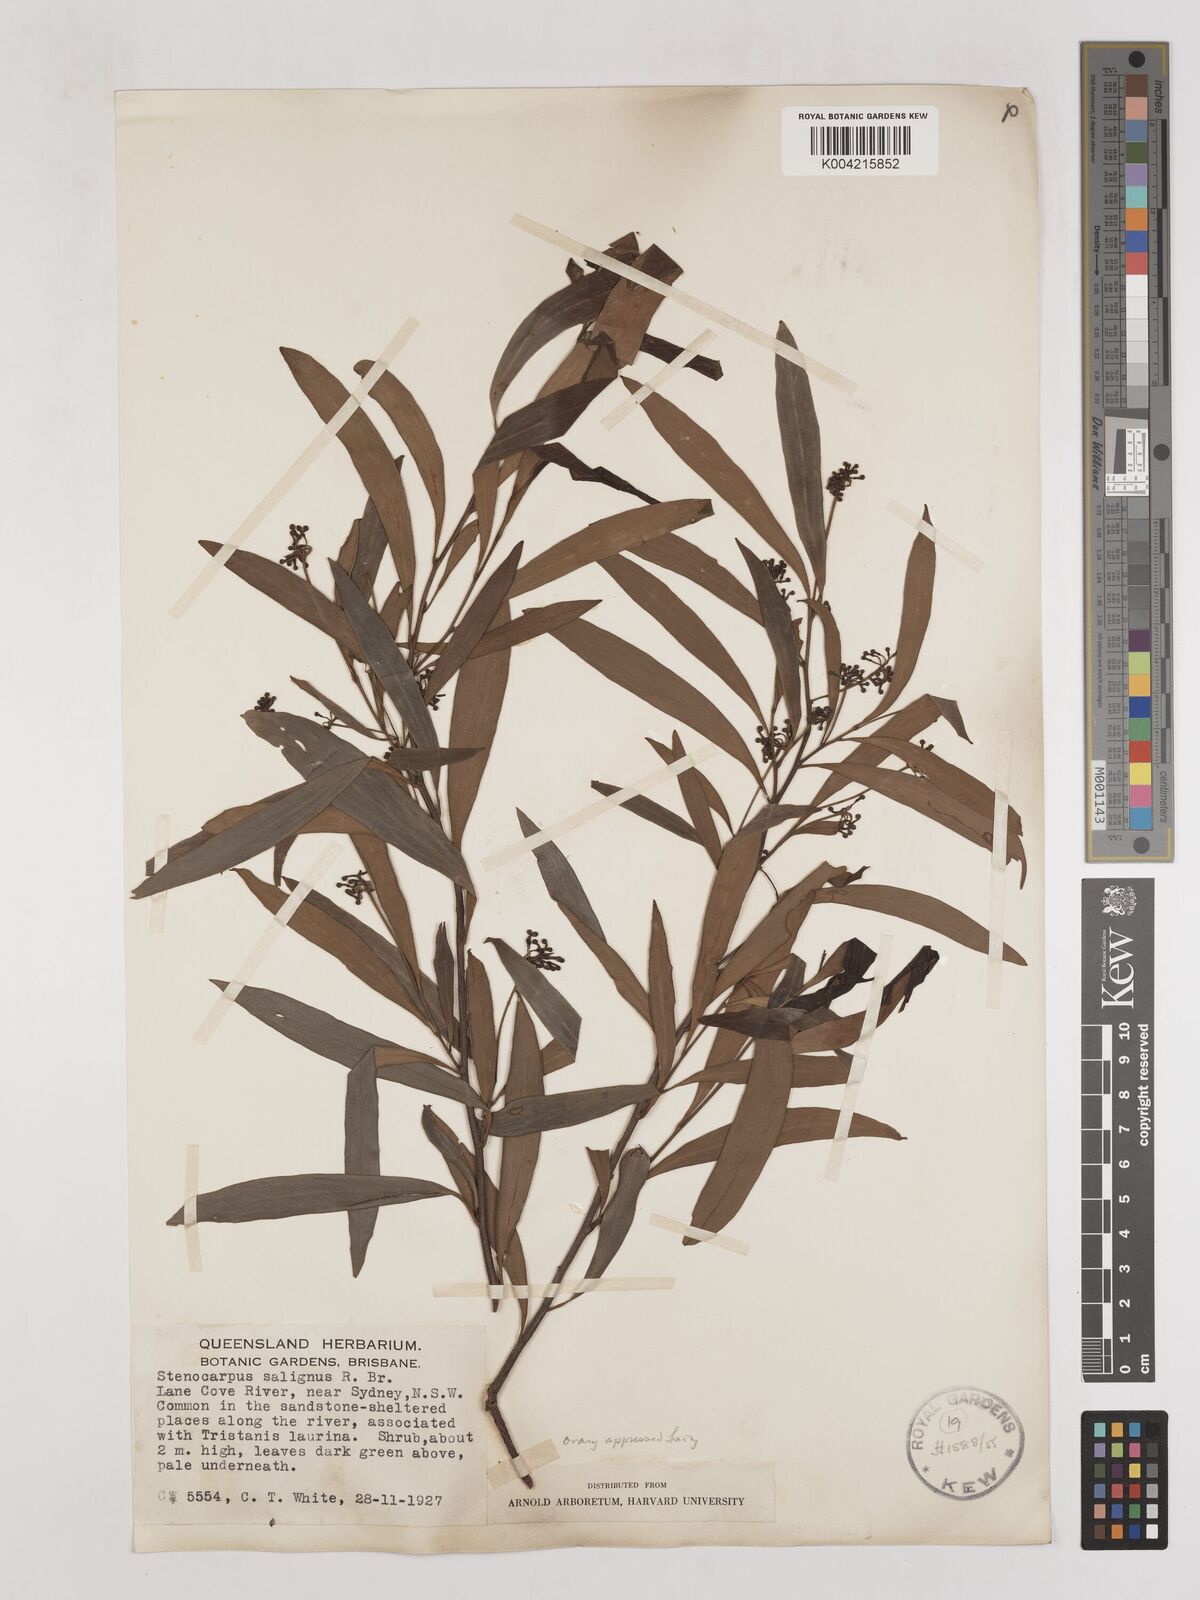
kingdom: Plantae
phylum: Tracheophyta
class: Magnoliopsida
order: Proteales
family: Proteaceae
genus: Stenocarpus
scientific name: Stenocarpus salignus
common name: Red silky-oak
